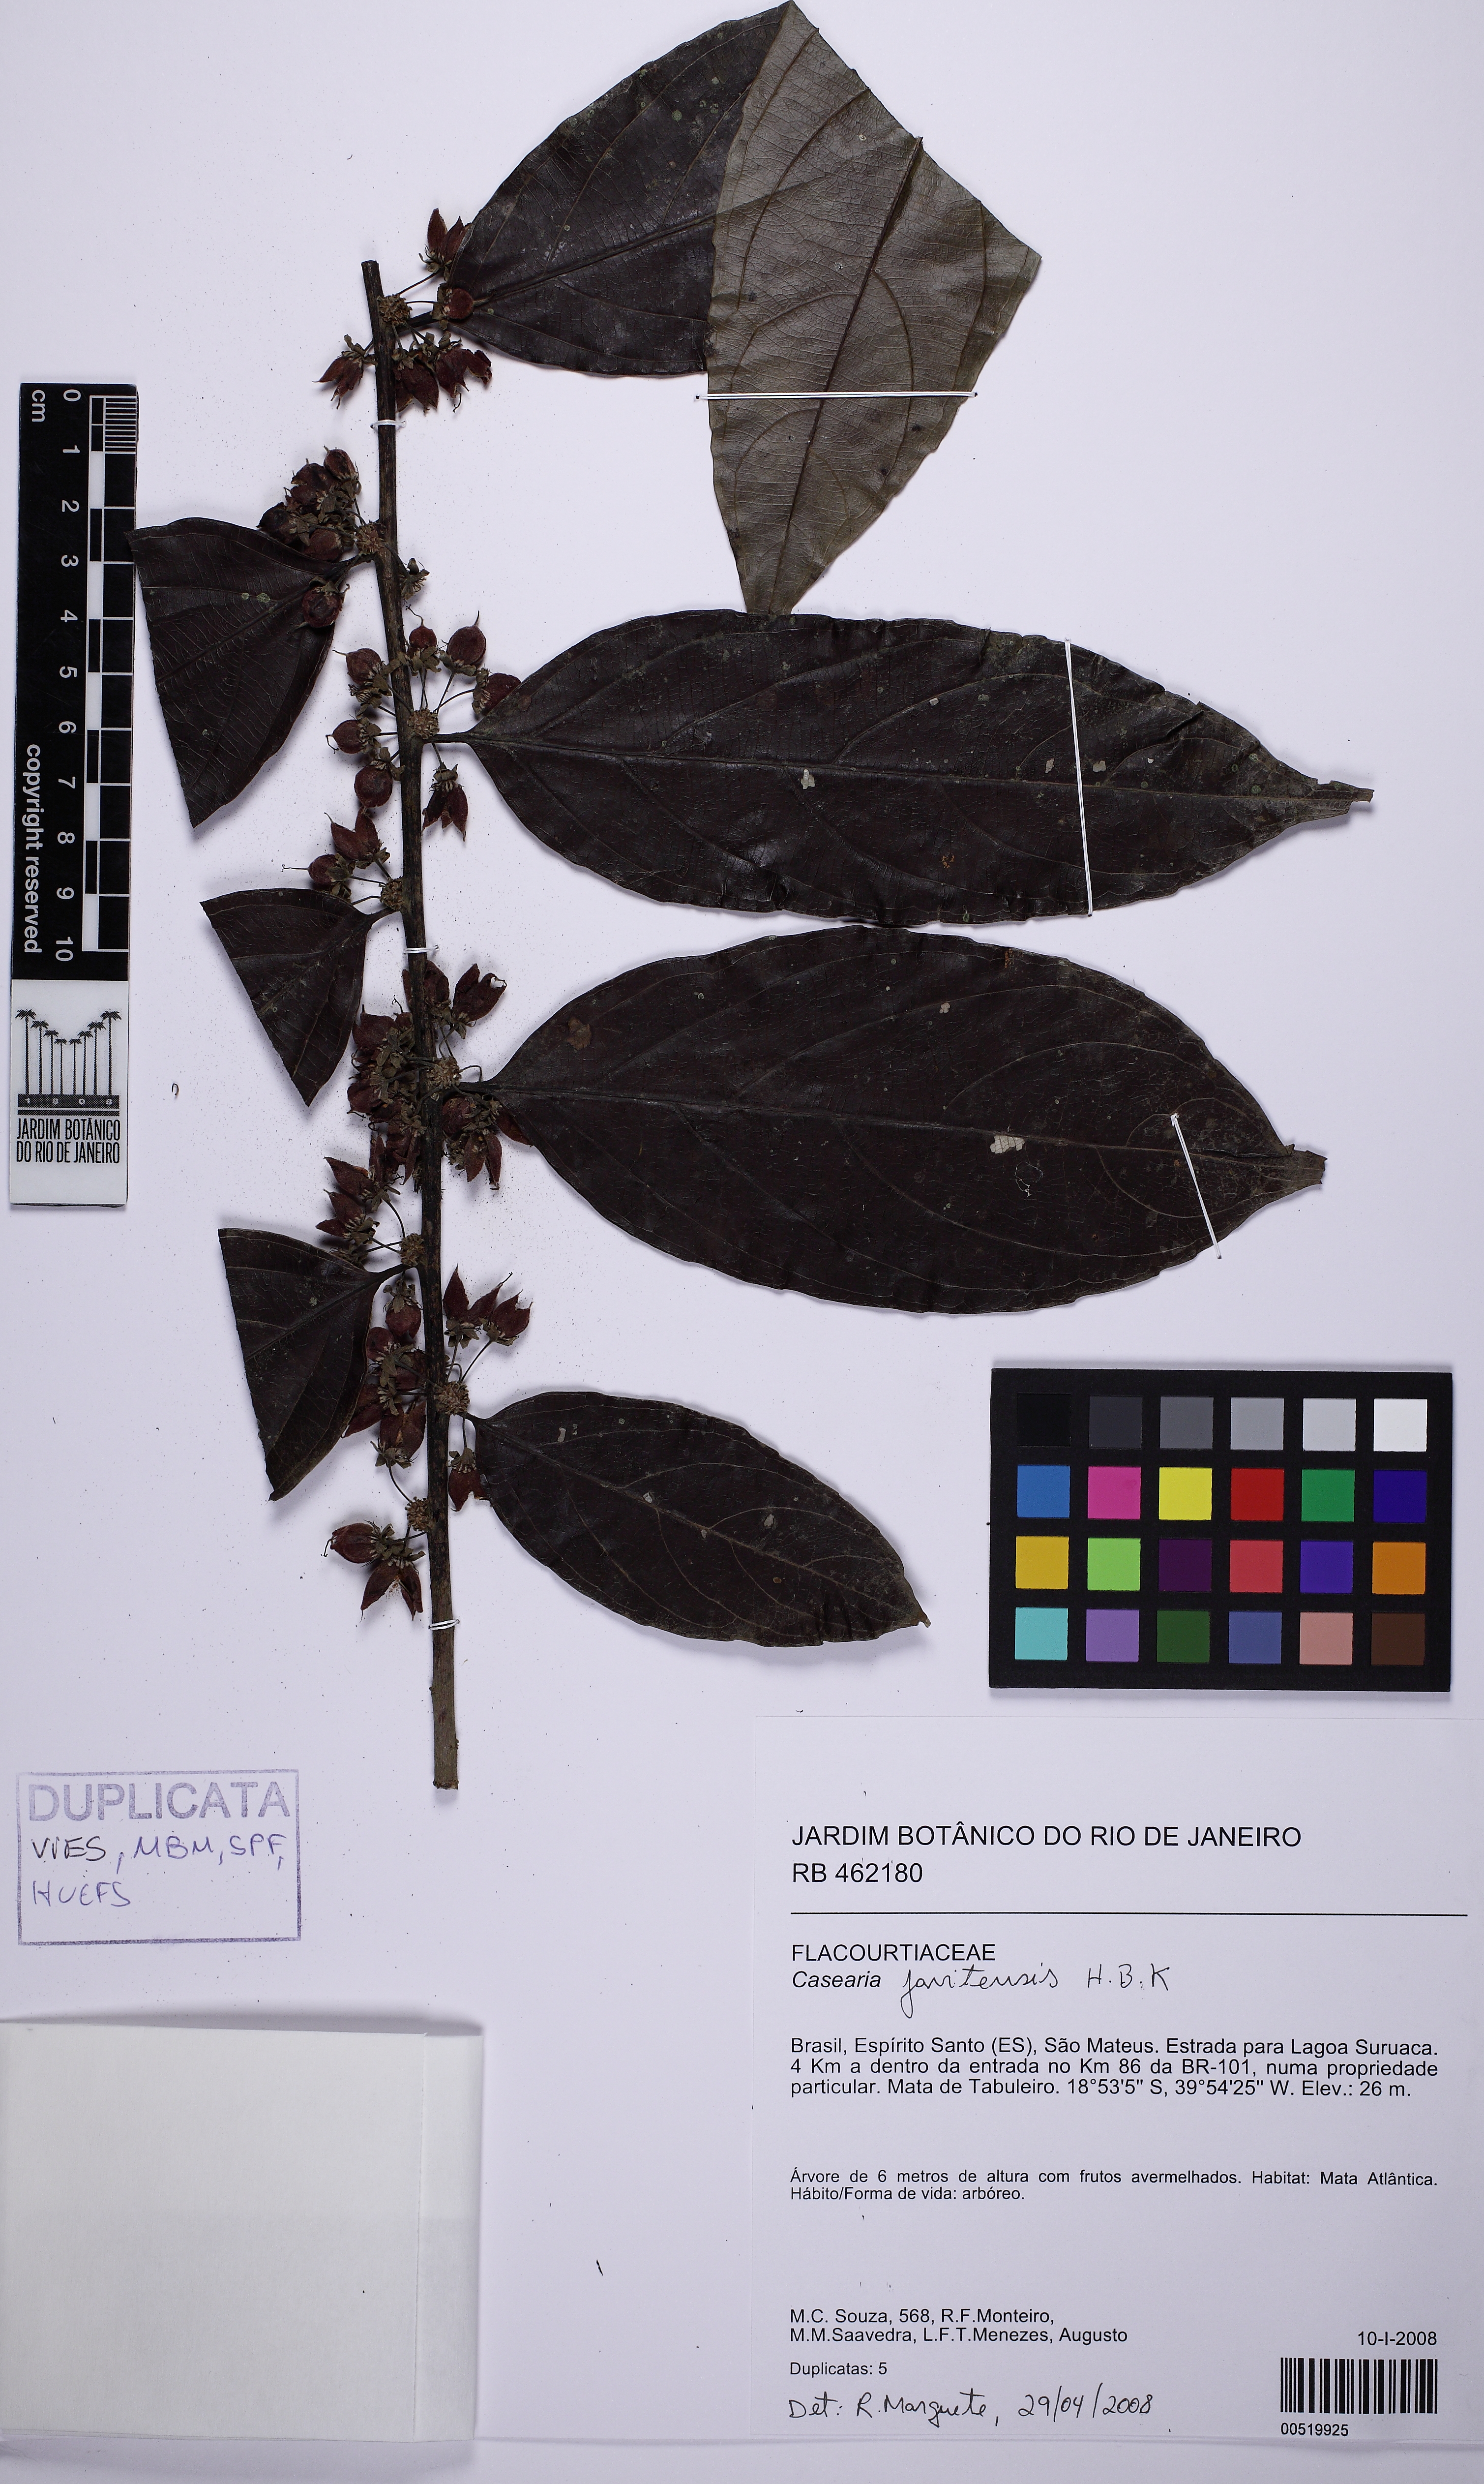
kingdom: Plantae
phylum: Tracheophyta
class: Magnoliopsida
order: Malpighiales
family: Salicaceae
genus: Piparea
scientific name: Piparea multiflora
